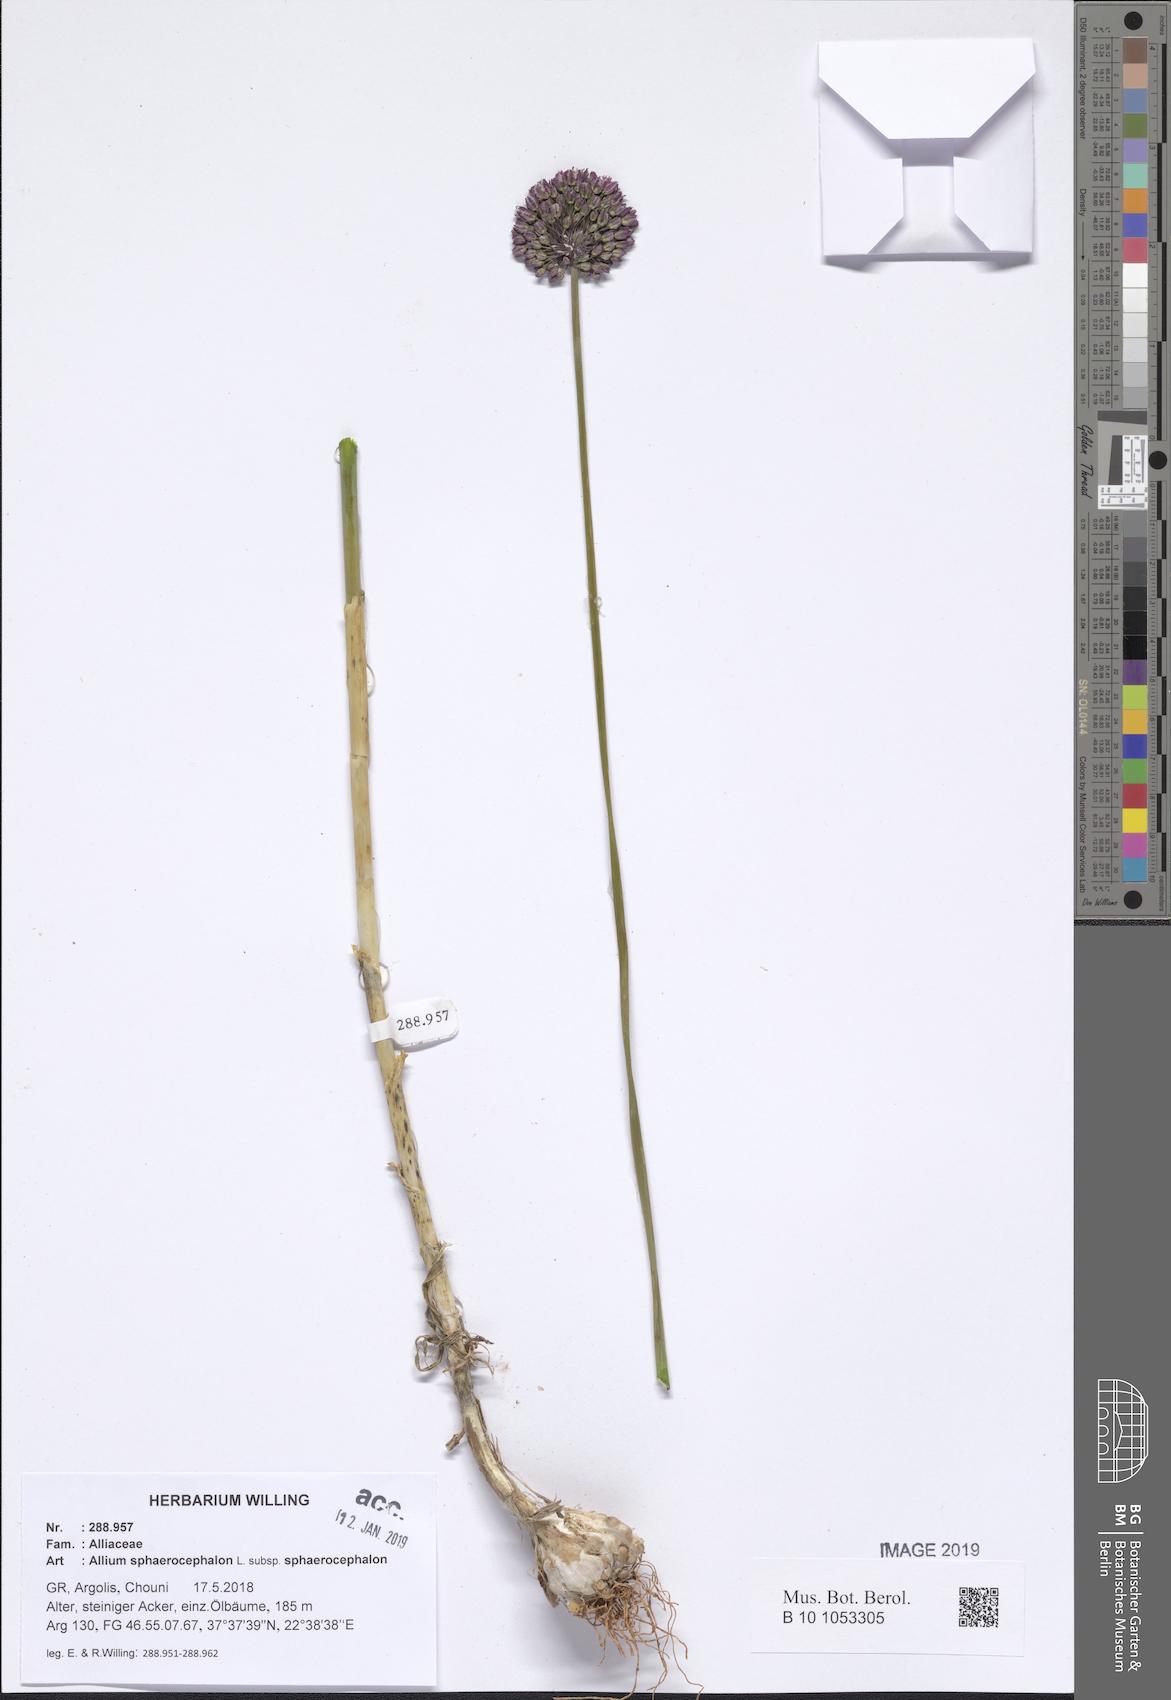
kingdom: Plantae
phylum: Tracheophyta
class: Liliopsida
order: Asparagales
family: Amaryllidaceae
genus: Allium
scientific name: Allium sphaerocephalon
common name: Round-headed leek
